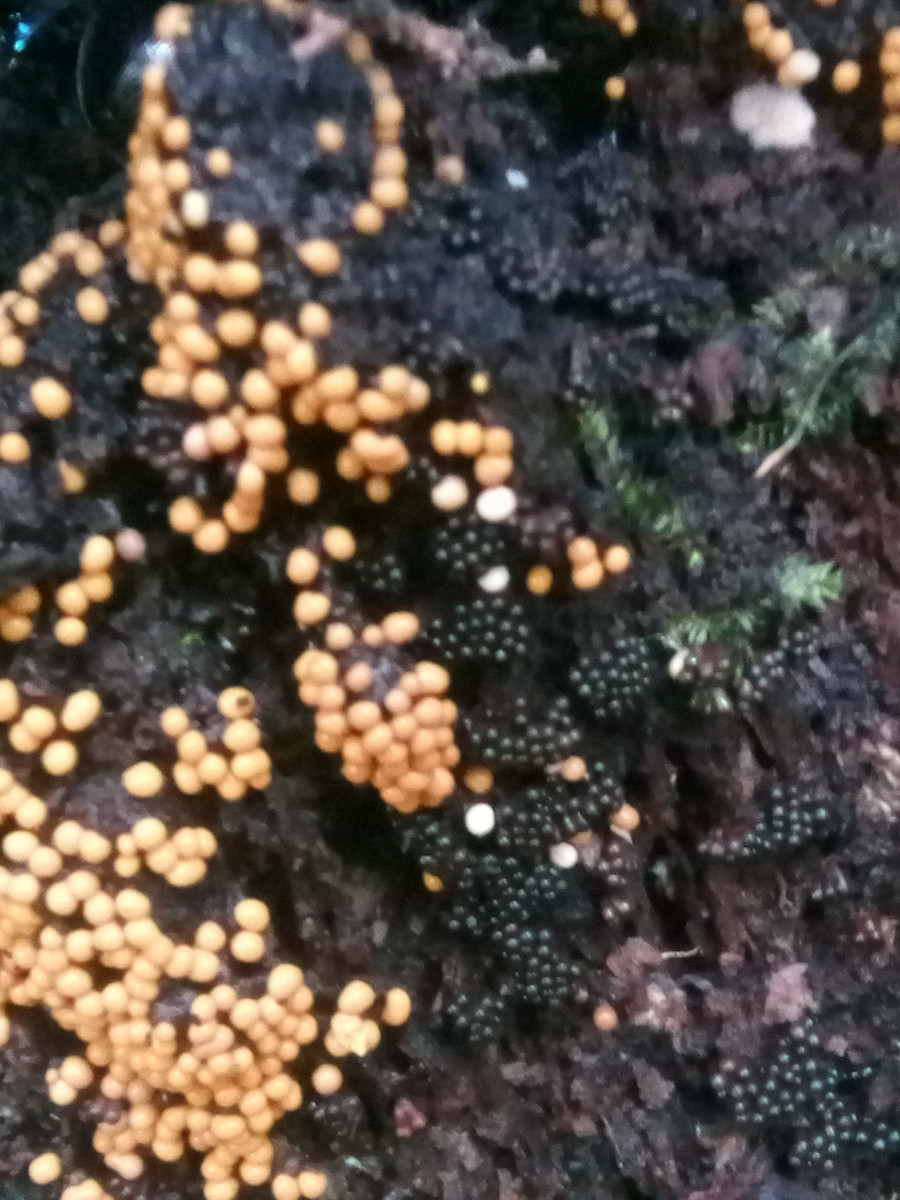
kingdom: Protozoa
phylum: Mycetozoa
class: Myxomycetes
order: Trichiales
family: Trichiaceae
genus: Trichia
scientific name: Trichia varia
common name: foranderlig hårbold
